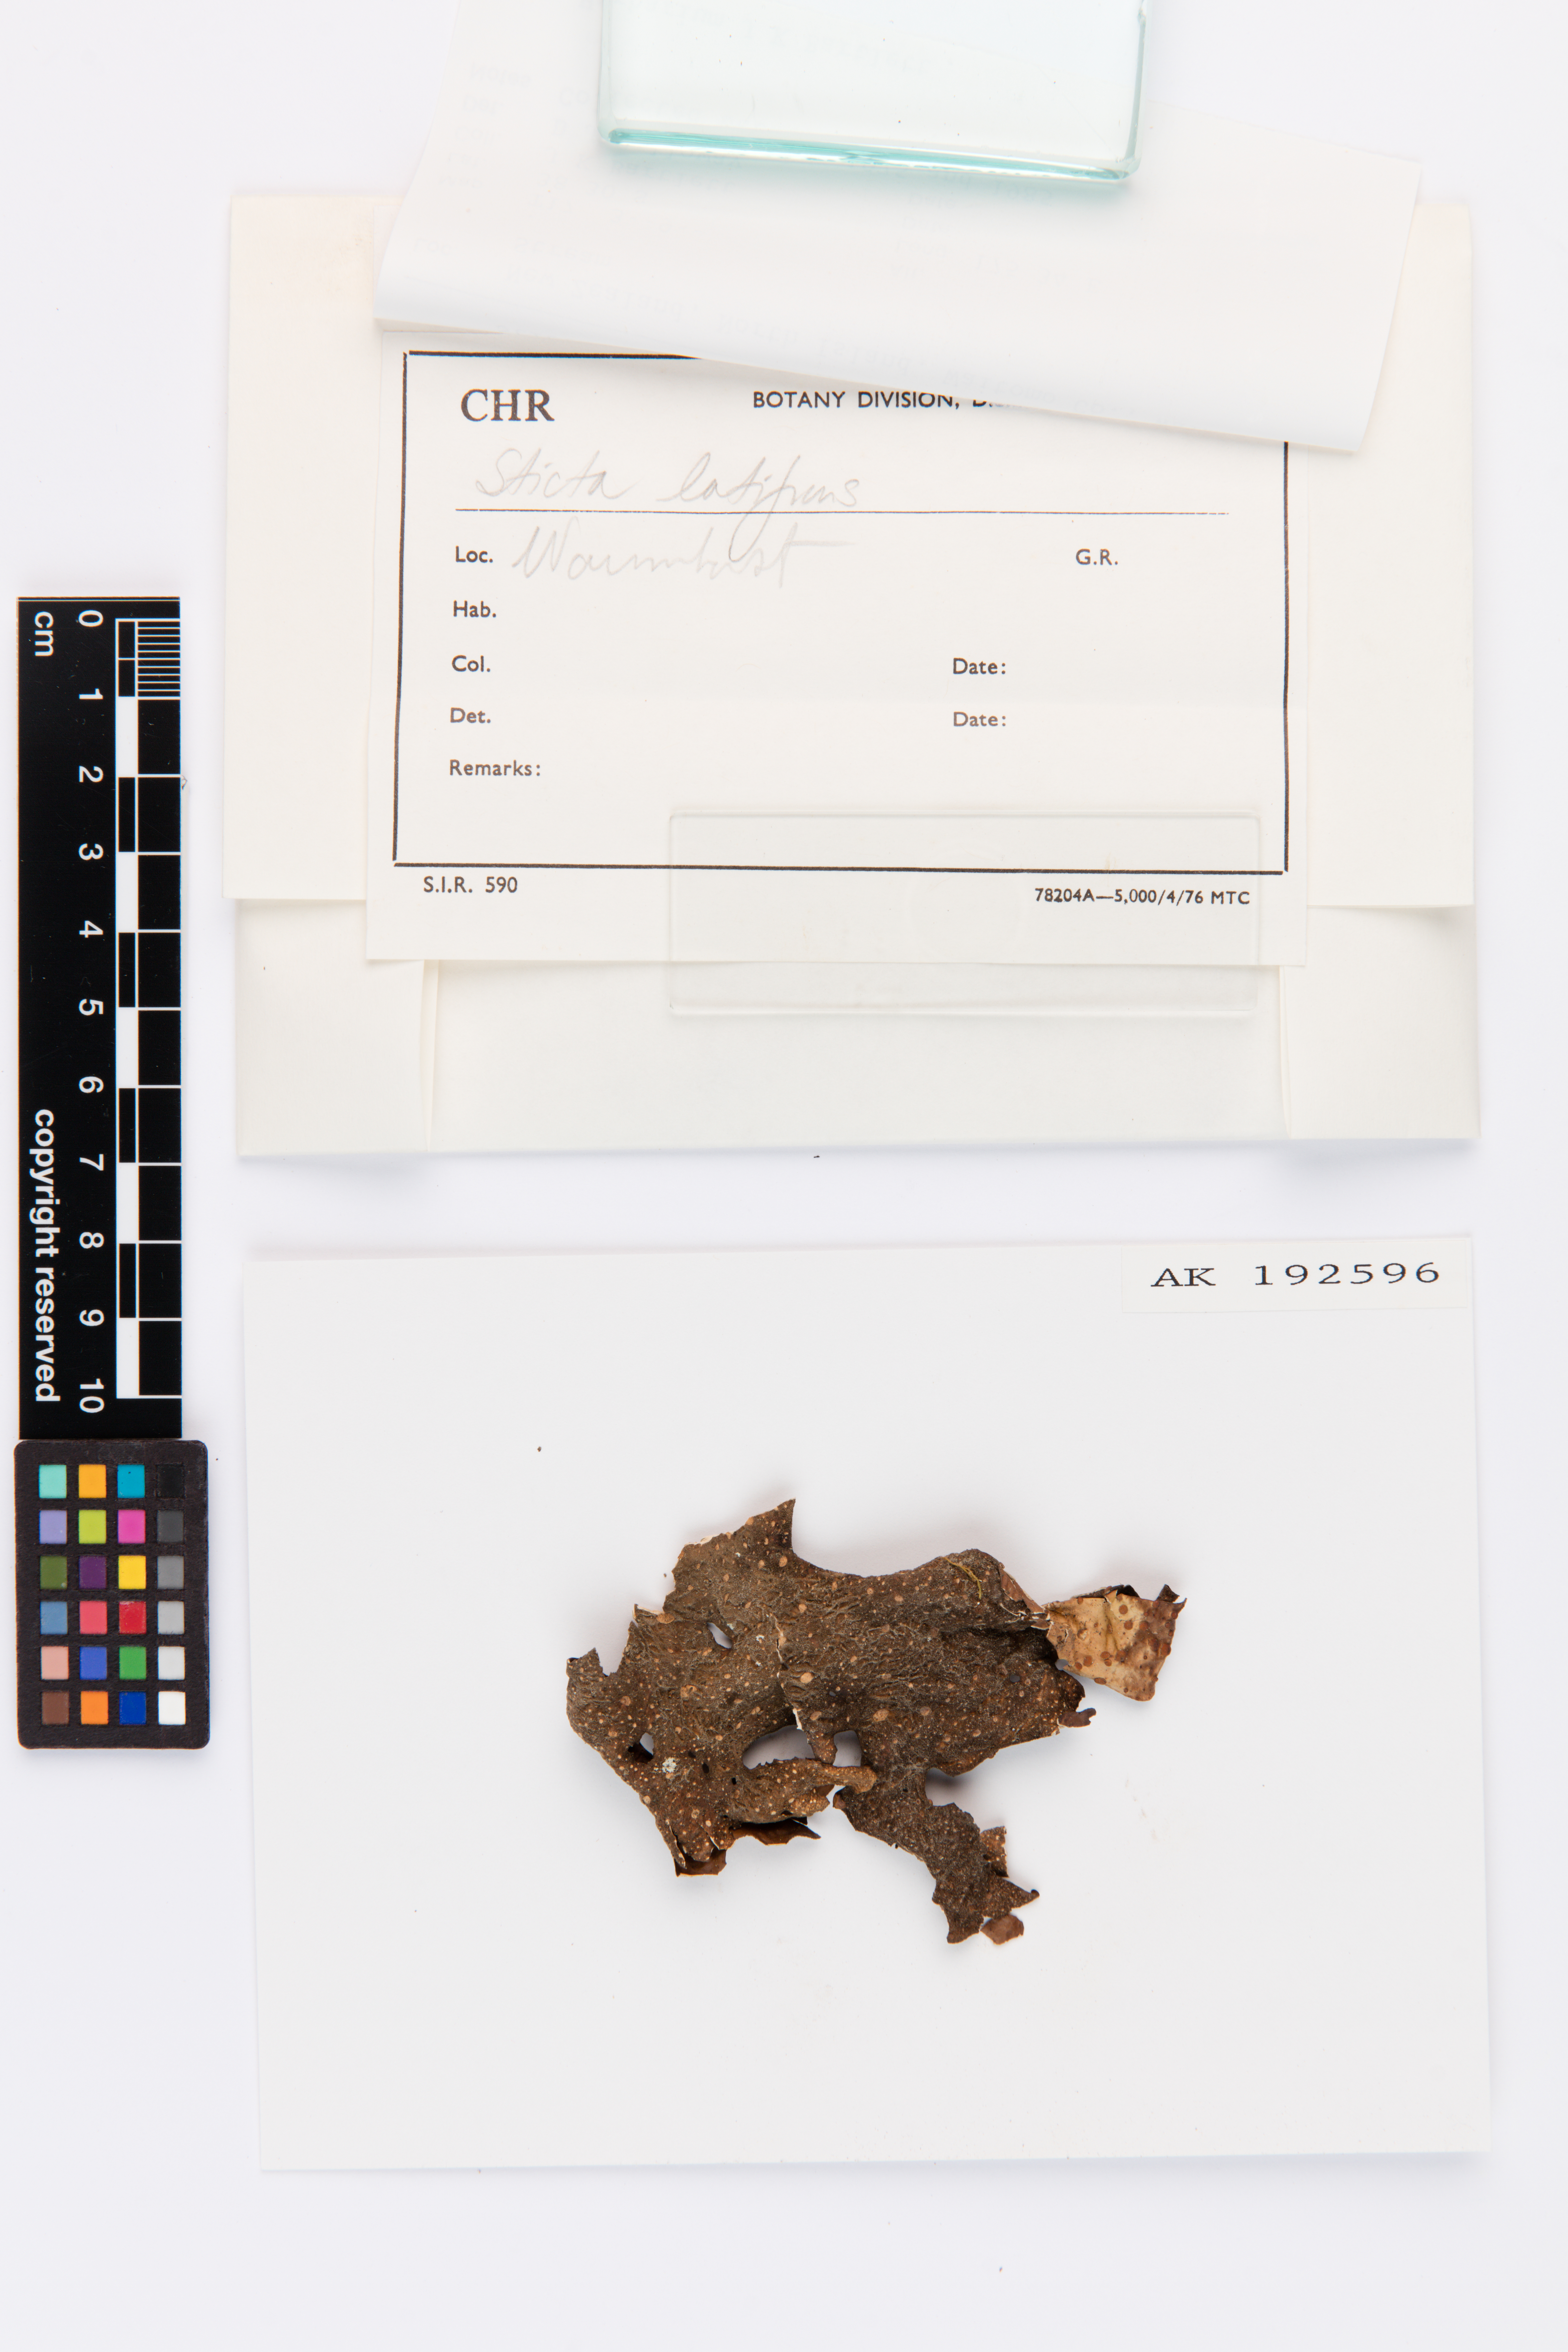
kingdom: Fungi
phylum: Ascomycota
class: Lecanoromycetes
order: Peltigerales
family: Lobariaceae
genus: Sticta
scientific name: Sticta latifrons
